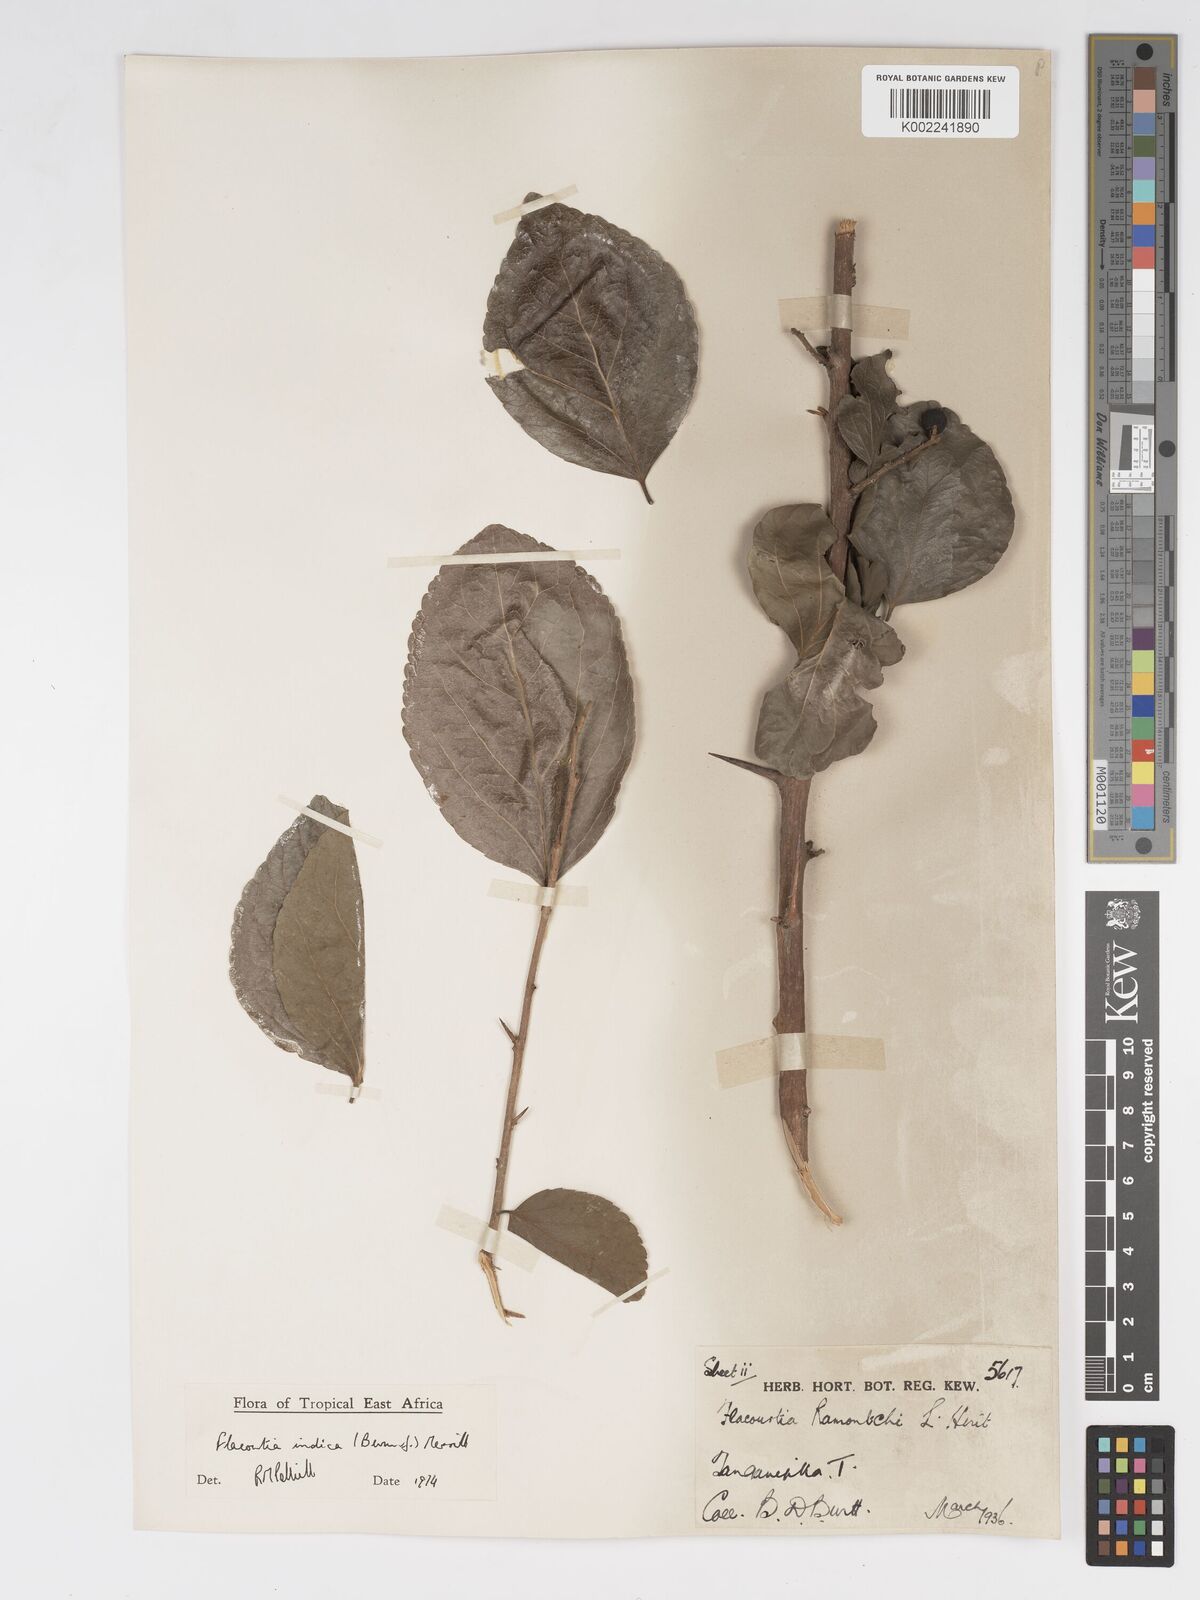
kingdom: Plantae
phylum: Tracheophyta
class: Magnoliopsida
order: Malpighiales
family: Salicaceae
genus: Flacourtia
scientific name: Flacourtia indica
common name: Governor's plum
